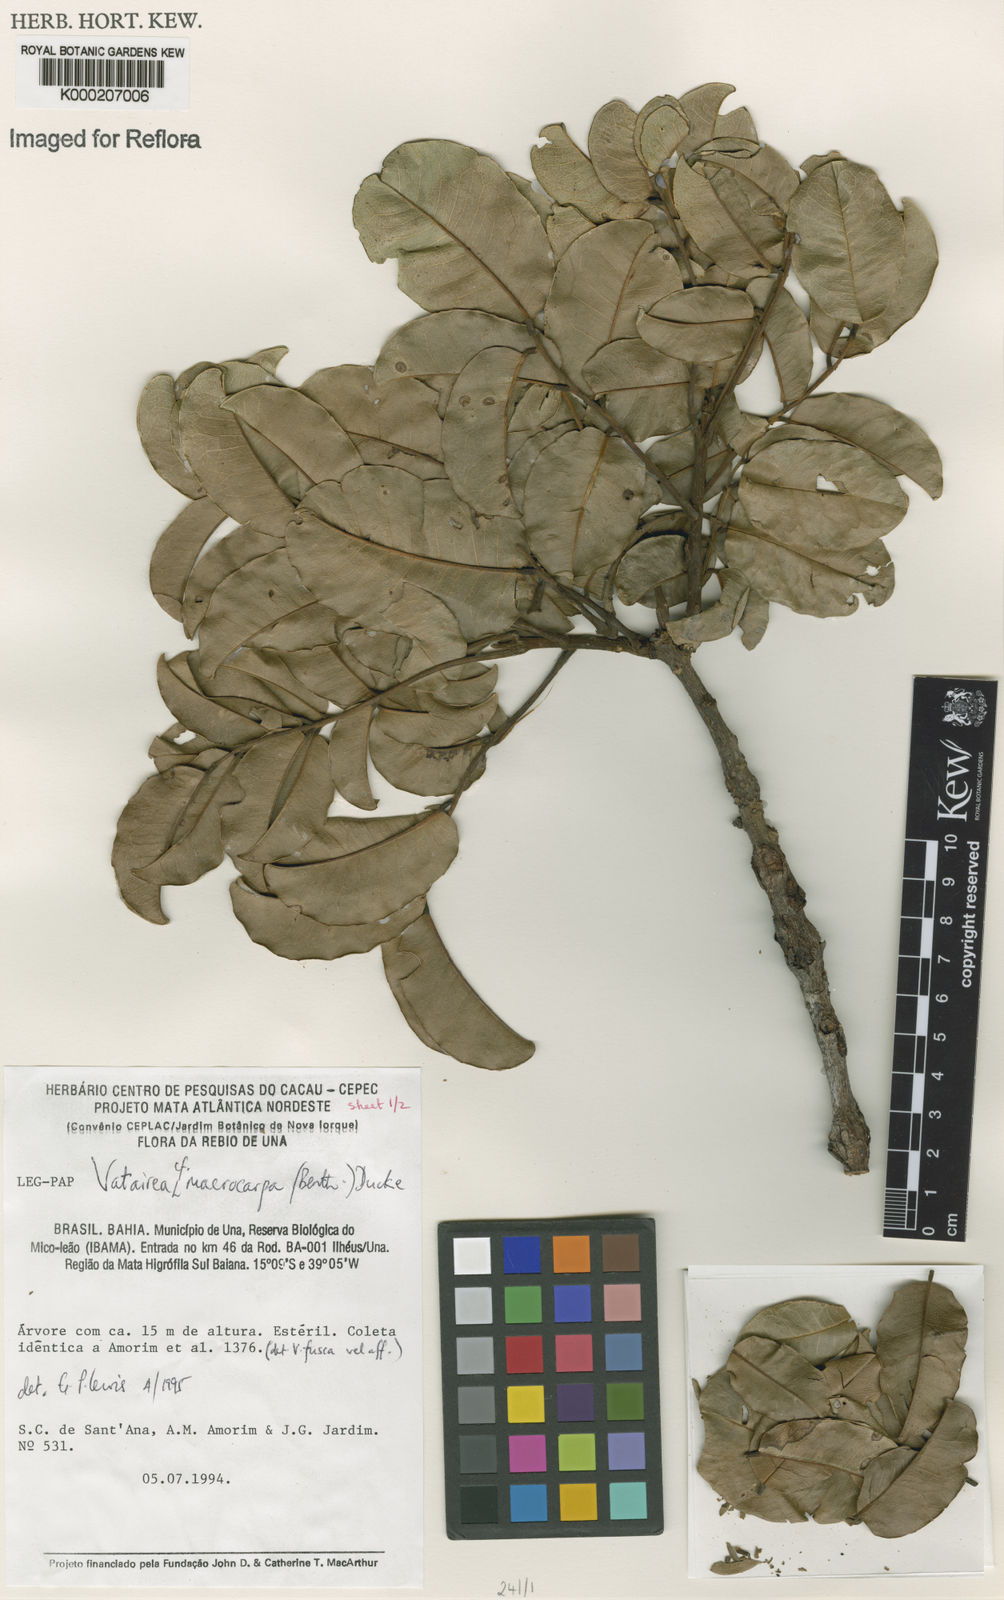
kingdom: Plantae
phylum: Tracheophyta
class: Magnoliopsida
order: Fabales
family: Fabaceae
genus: Vatairea
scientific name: Vatairea
